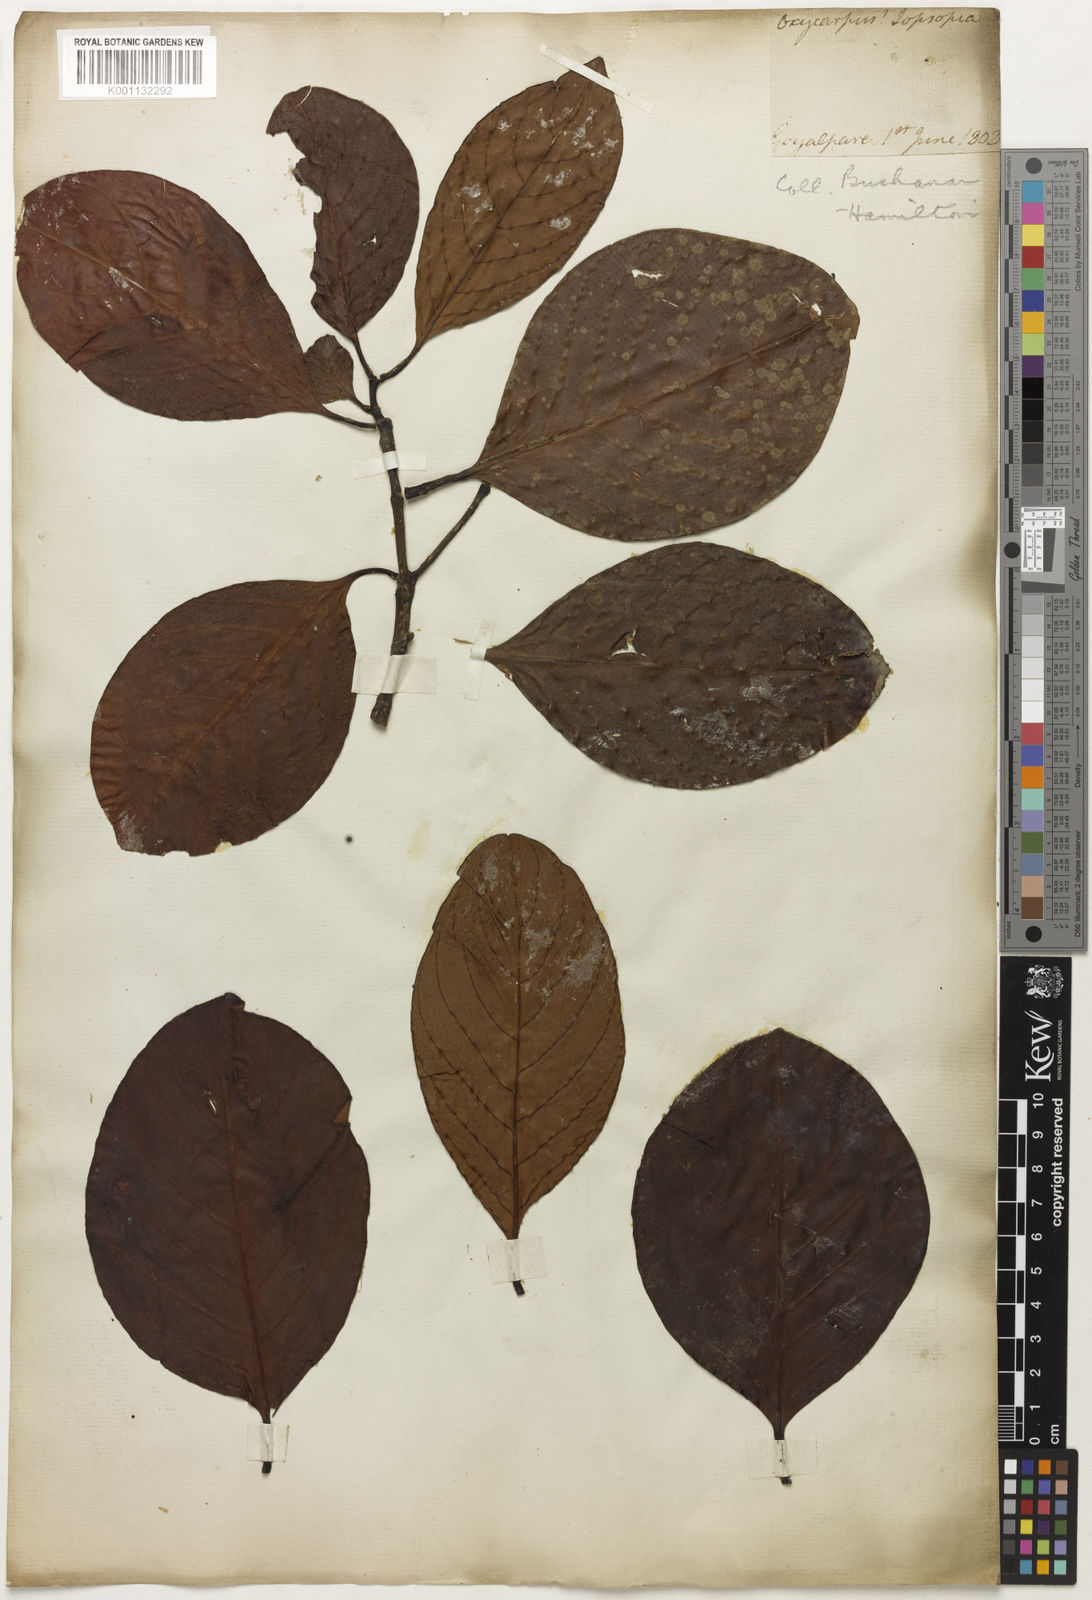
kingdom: Plantae
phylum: Tracheophyta
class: Magnoliopsida
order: Malpighiales
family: Clusiaceae
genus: Garcinia
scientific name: Garcinia
